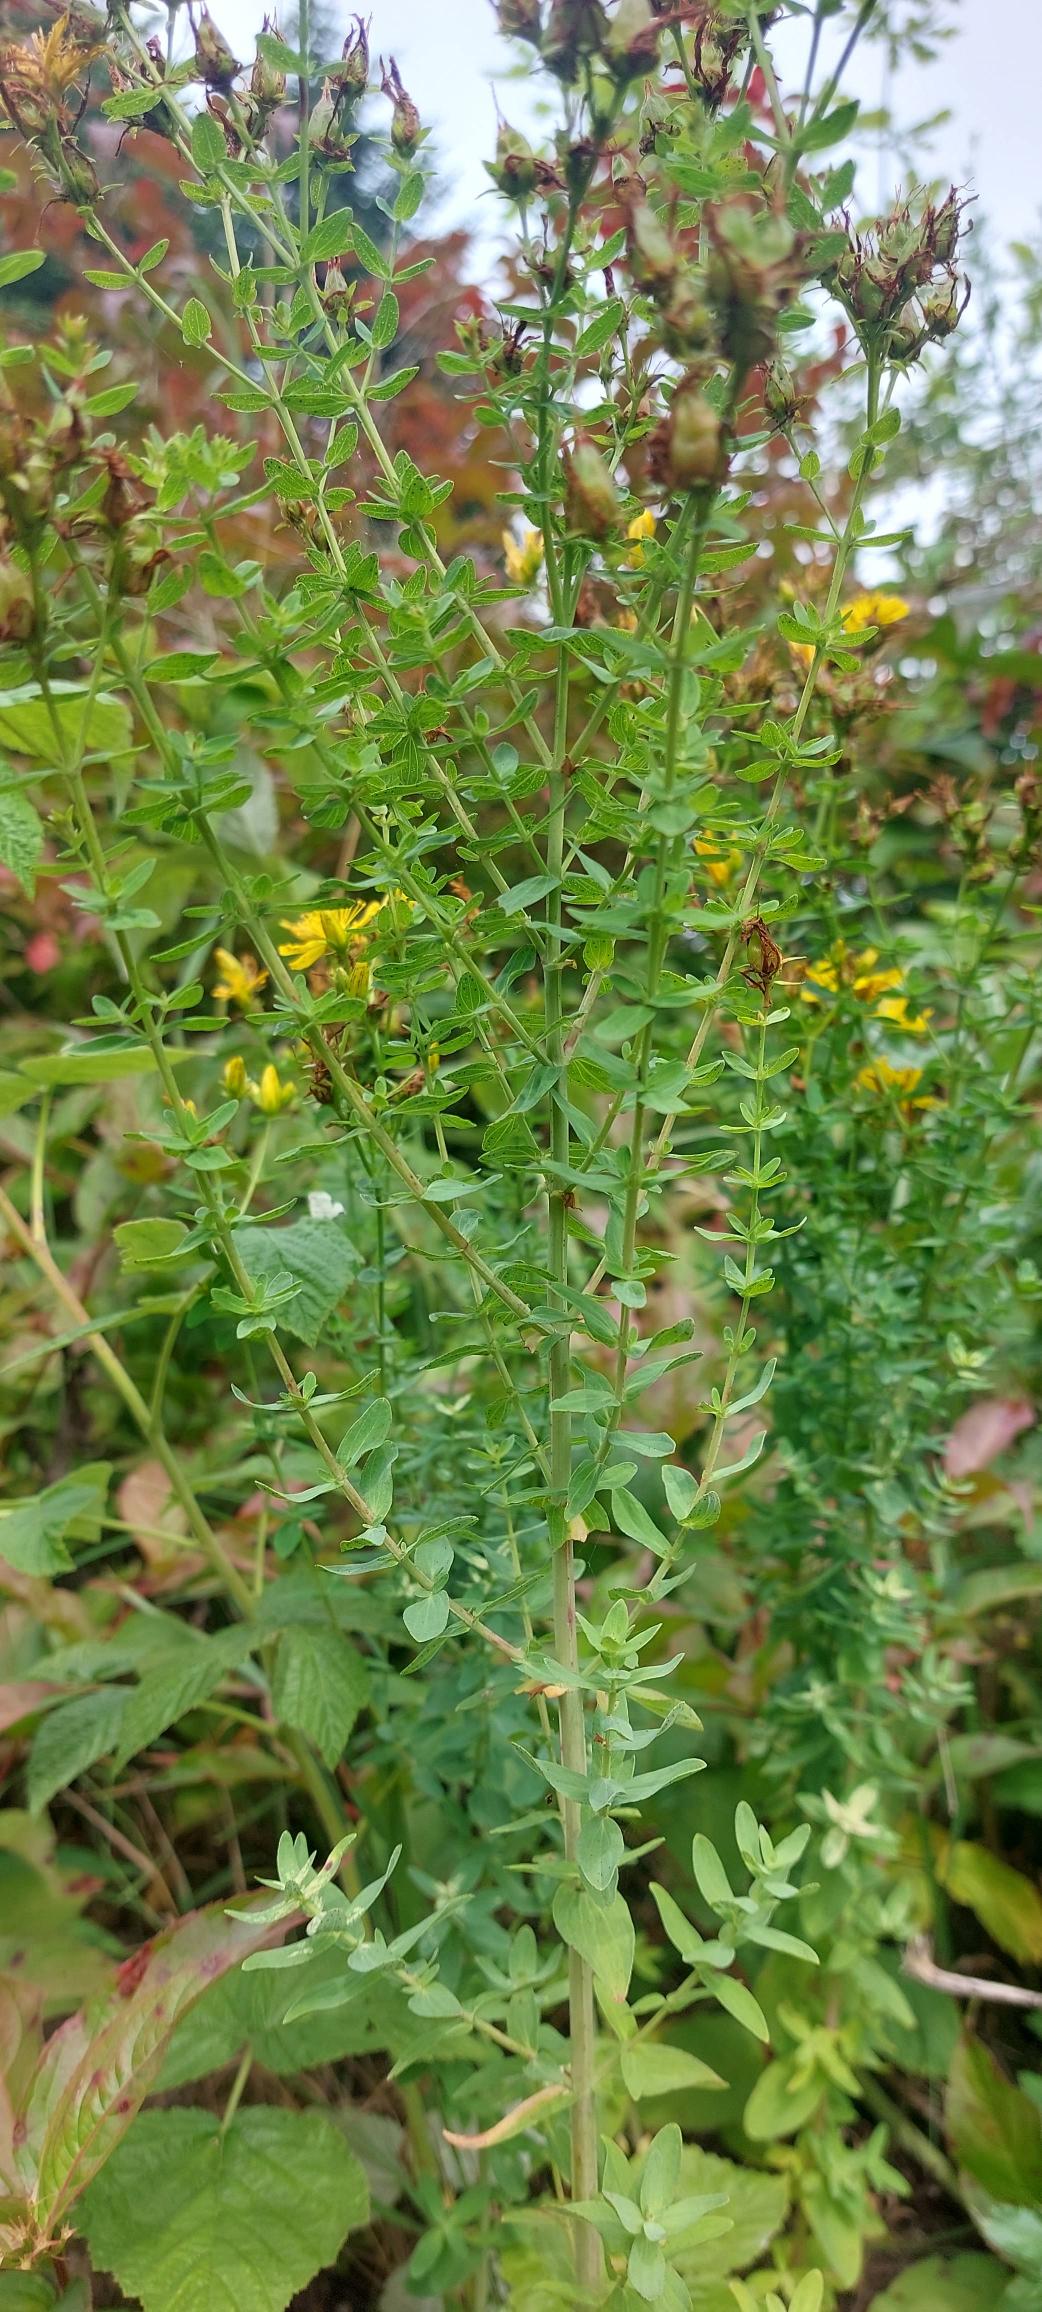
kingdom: Plantae
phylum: Tracheophyta
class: Magnoliopsida
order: Malpighiales
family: Hypericaceae
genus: Hypericum
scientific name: Hypericum perforatum
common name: Prikbladet perikon
